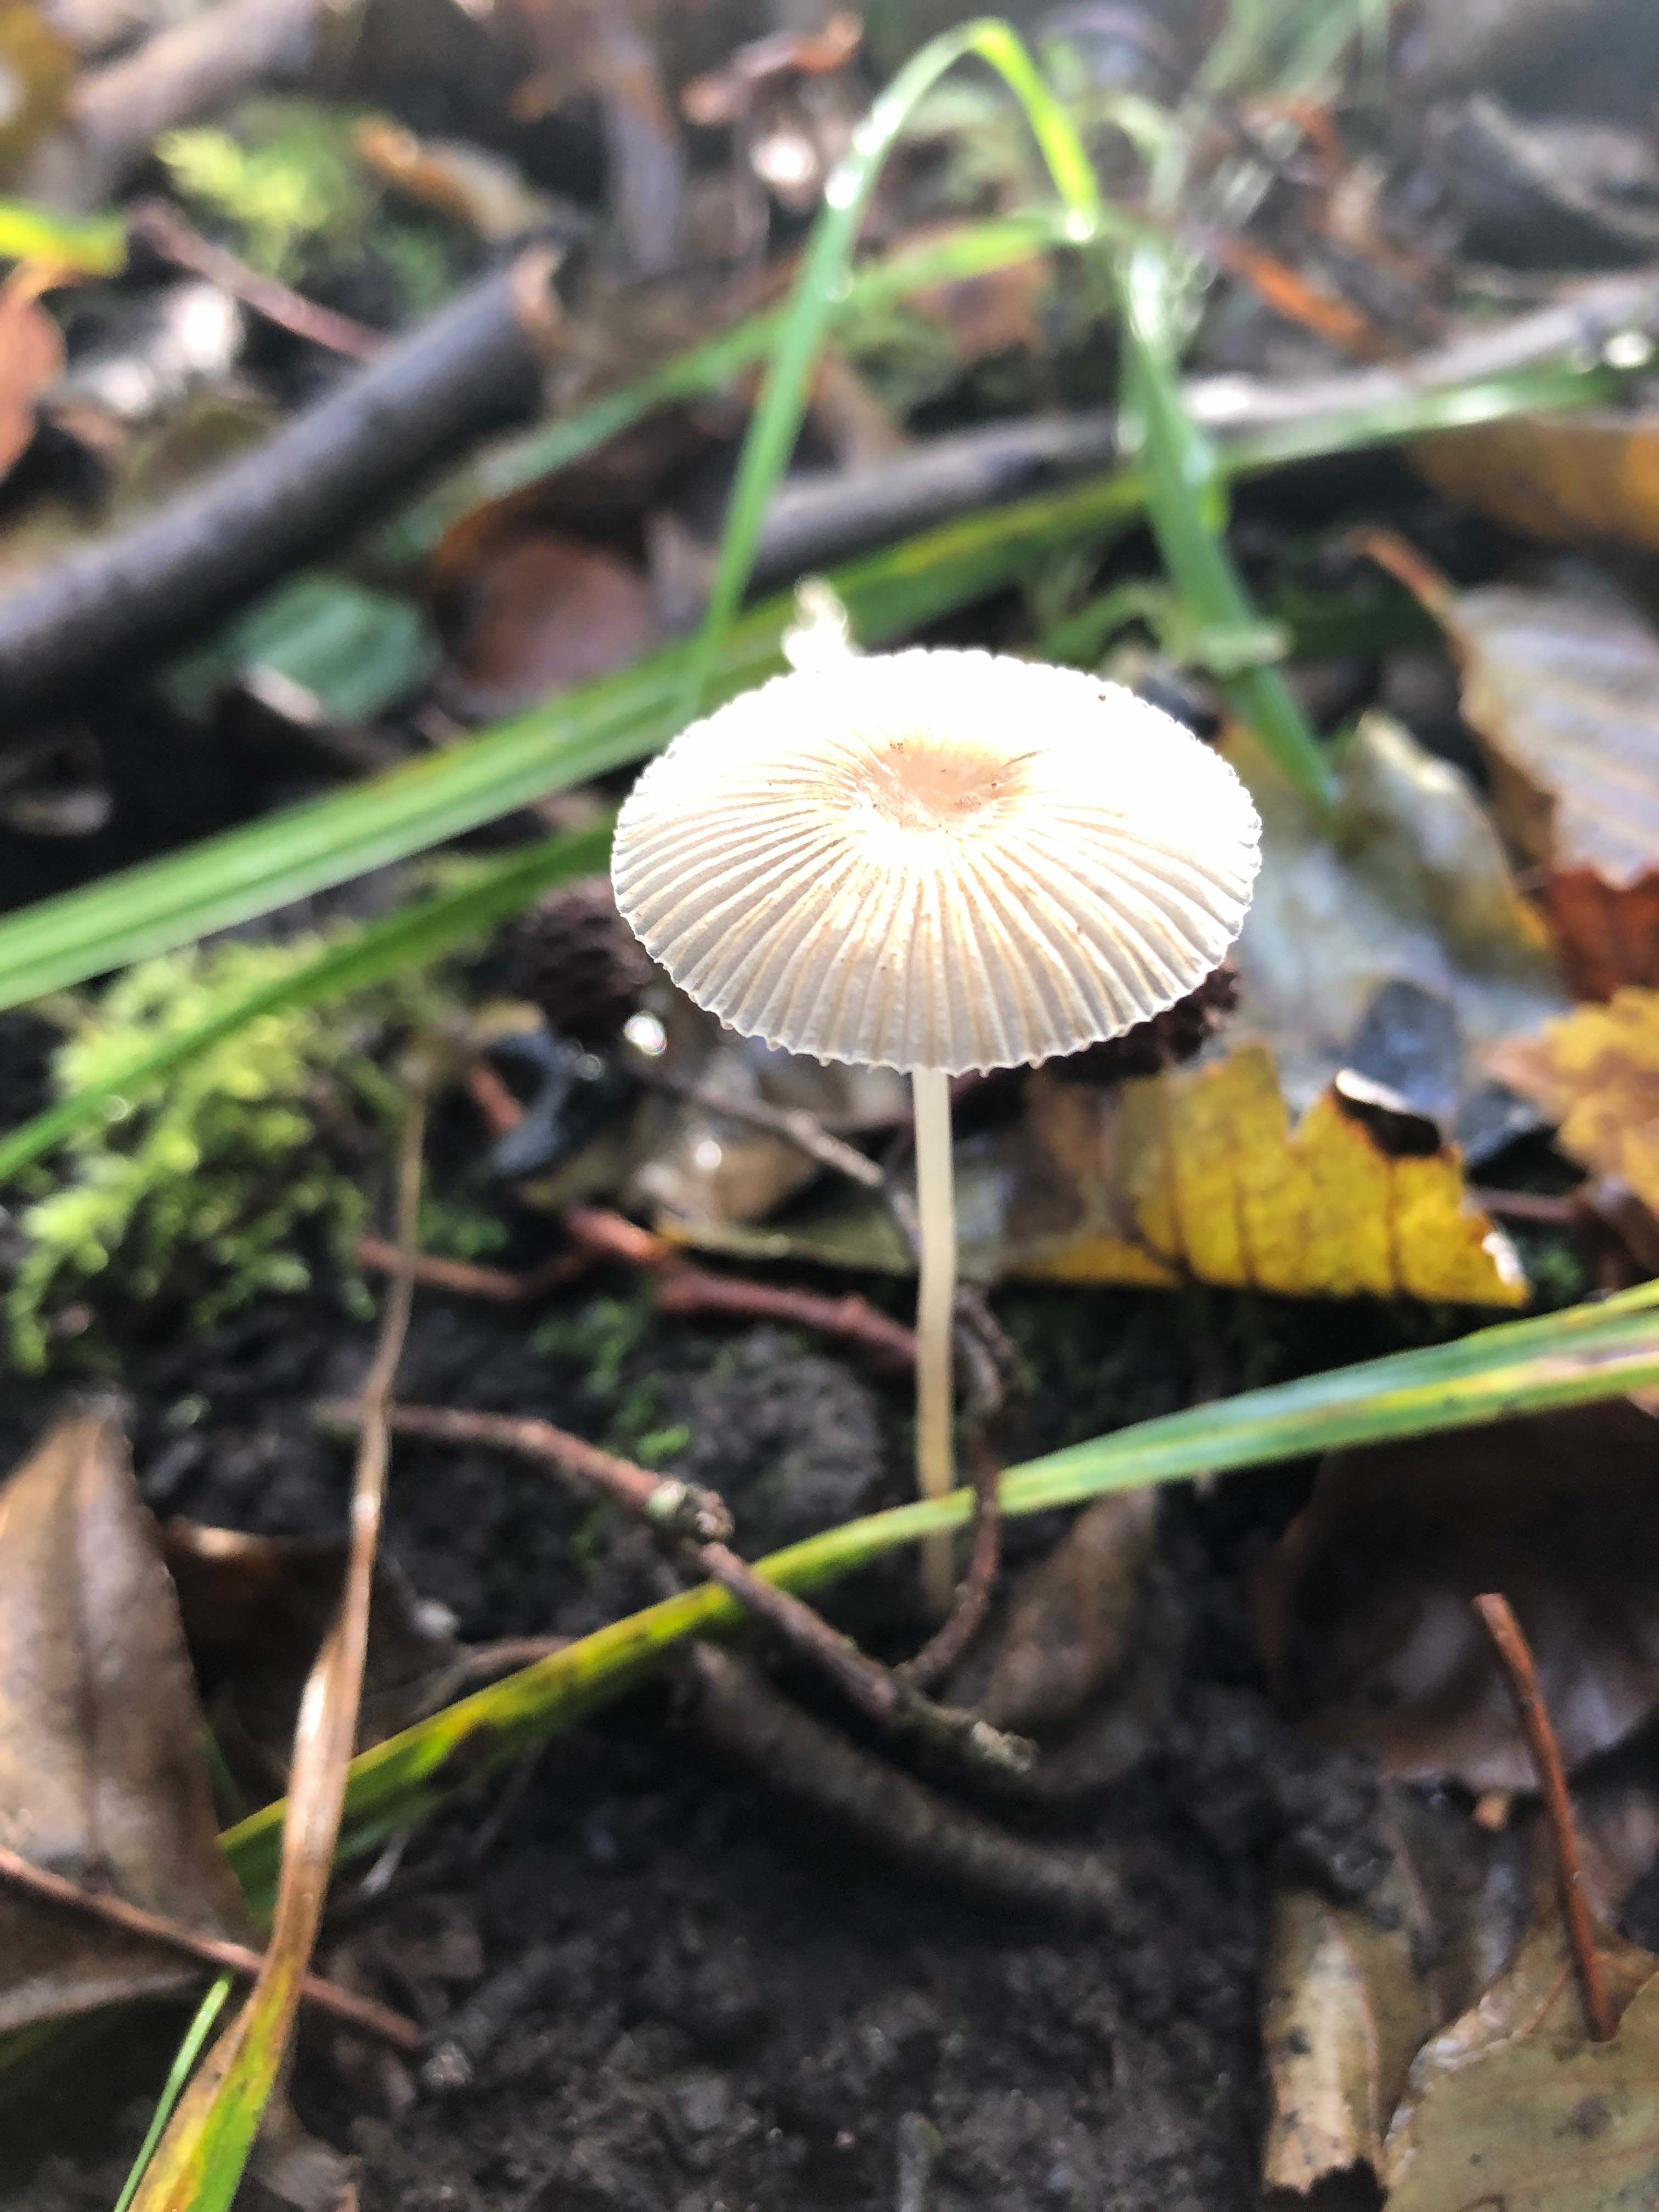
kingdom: Fungi
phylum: Basidiomycota
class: Agaricomycetes
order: Agaricales
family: Psathyrellaceae
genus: Parasola
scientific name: Parasola
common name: hjulhat
